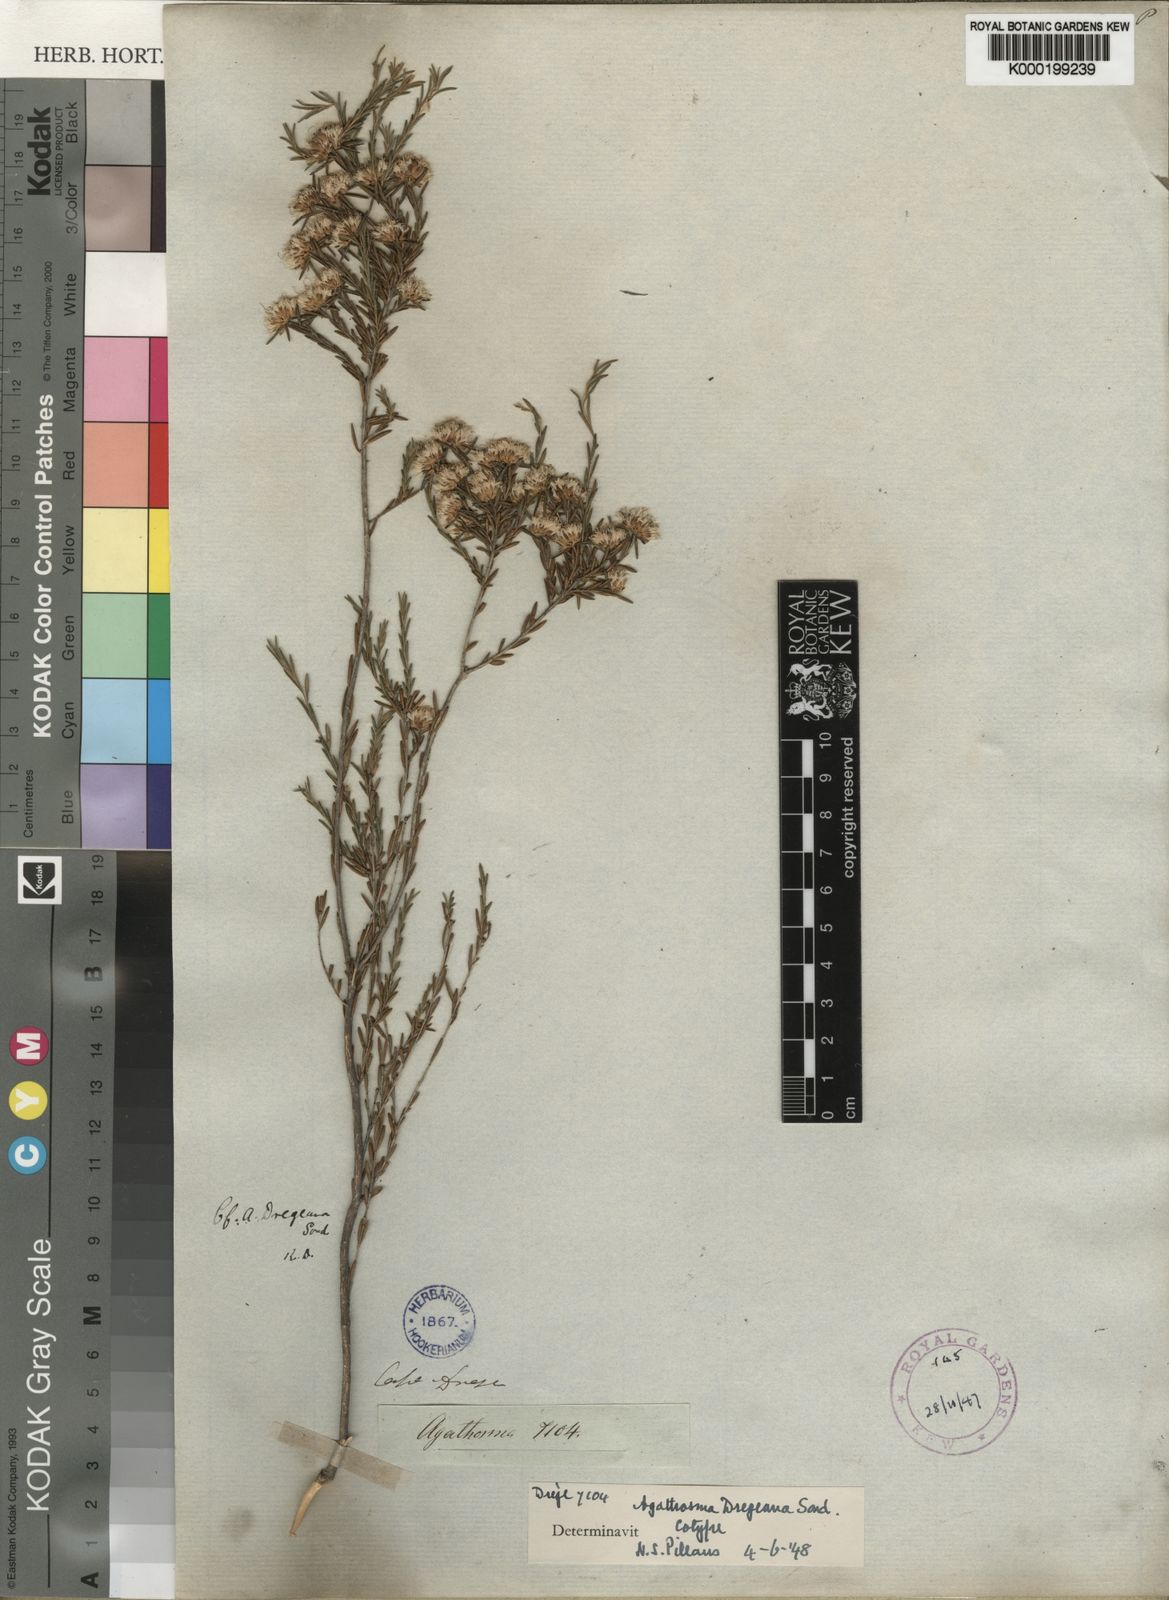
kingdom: Plantae
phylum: Tracheophyta
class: Magnoliopsida
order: Sapindales
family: Rutaceae
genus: Agathosma
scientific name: Agathosma dregeana
